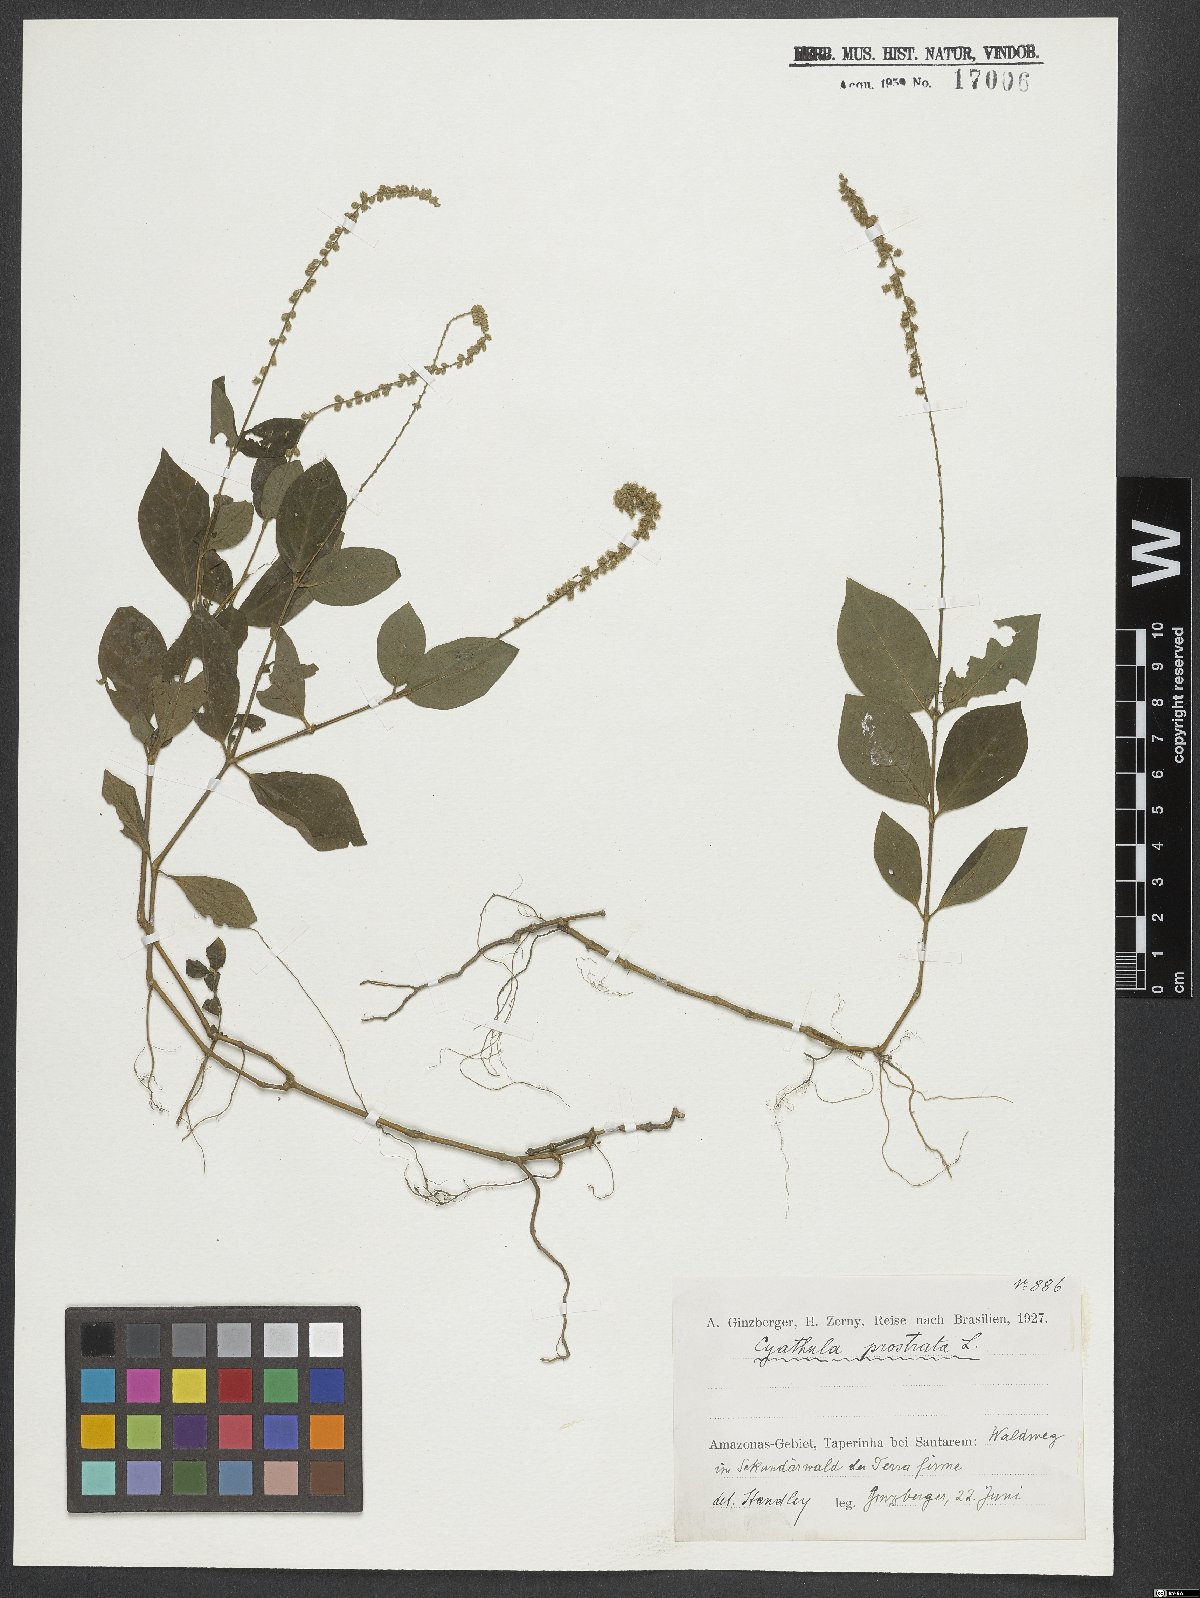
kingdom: Plantae
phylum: Tracheophyta
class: Magnoliopsida
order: Caryophyllales
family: Amaranthaceae
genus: Cyathula
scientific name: Cyathula prostrata
